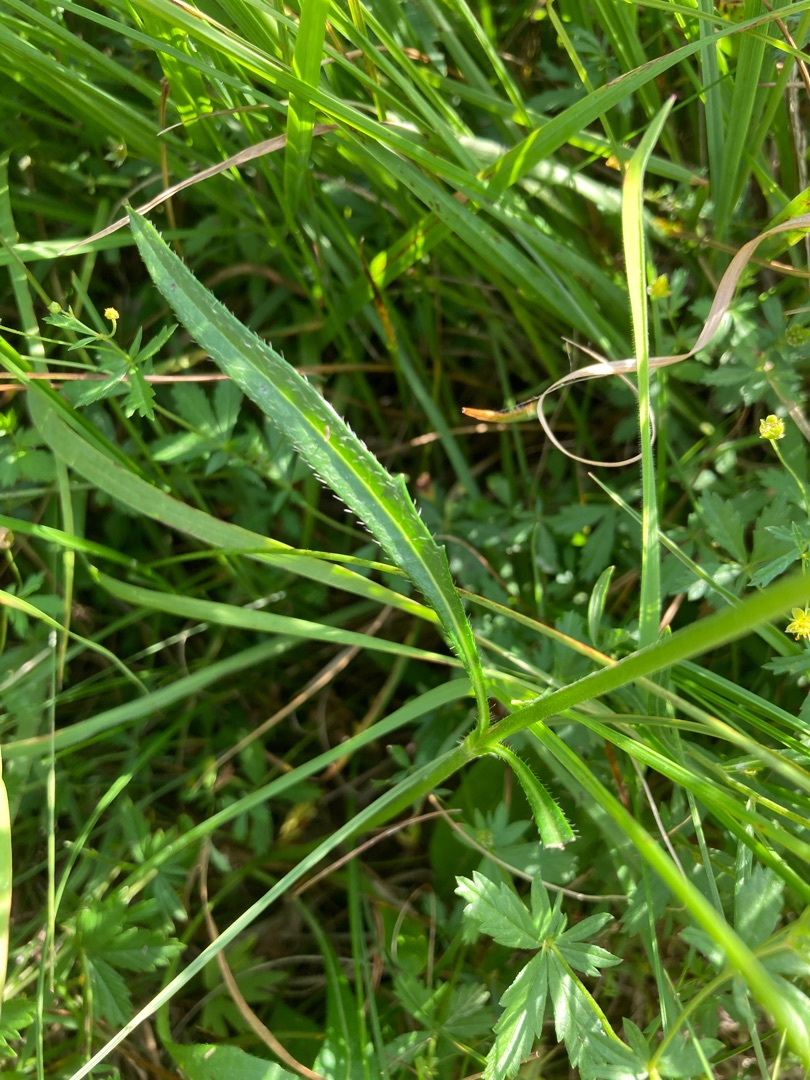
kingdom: Plantae
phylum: Tracheophyta
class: Magnoliopsida
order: Dipsacales
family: Caprifoliaceae
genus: Succisa
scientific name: Succisa pratensis
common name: Djævelsbid
